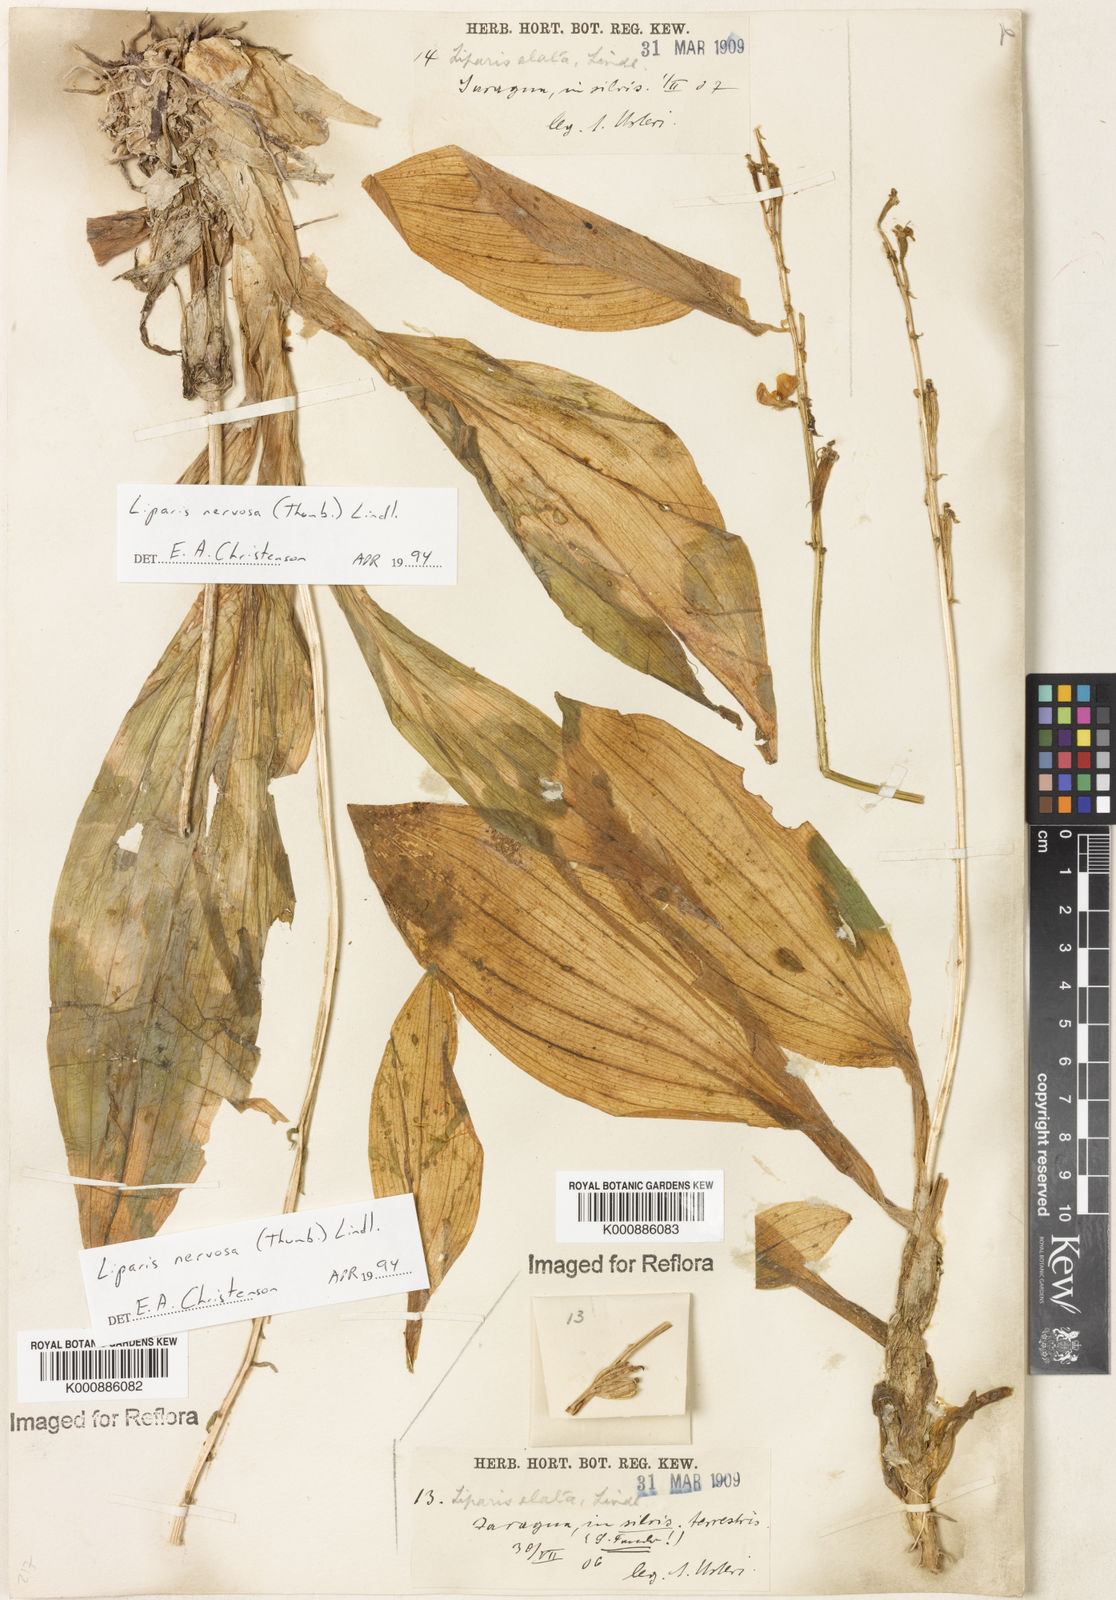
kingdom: Plantae
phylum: Tracheophyta
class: Liliopsida
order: Asparagales
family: Orchidaceae
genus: Liparis
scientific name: Liparis nervosa
